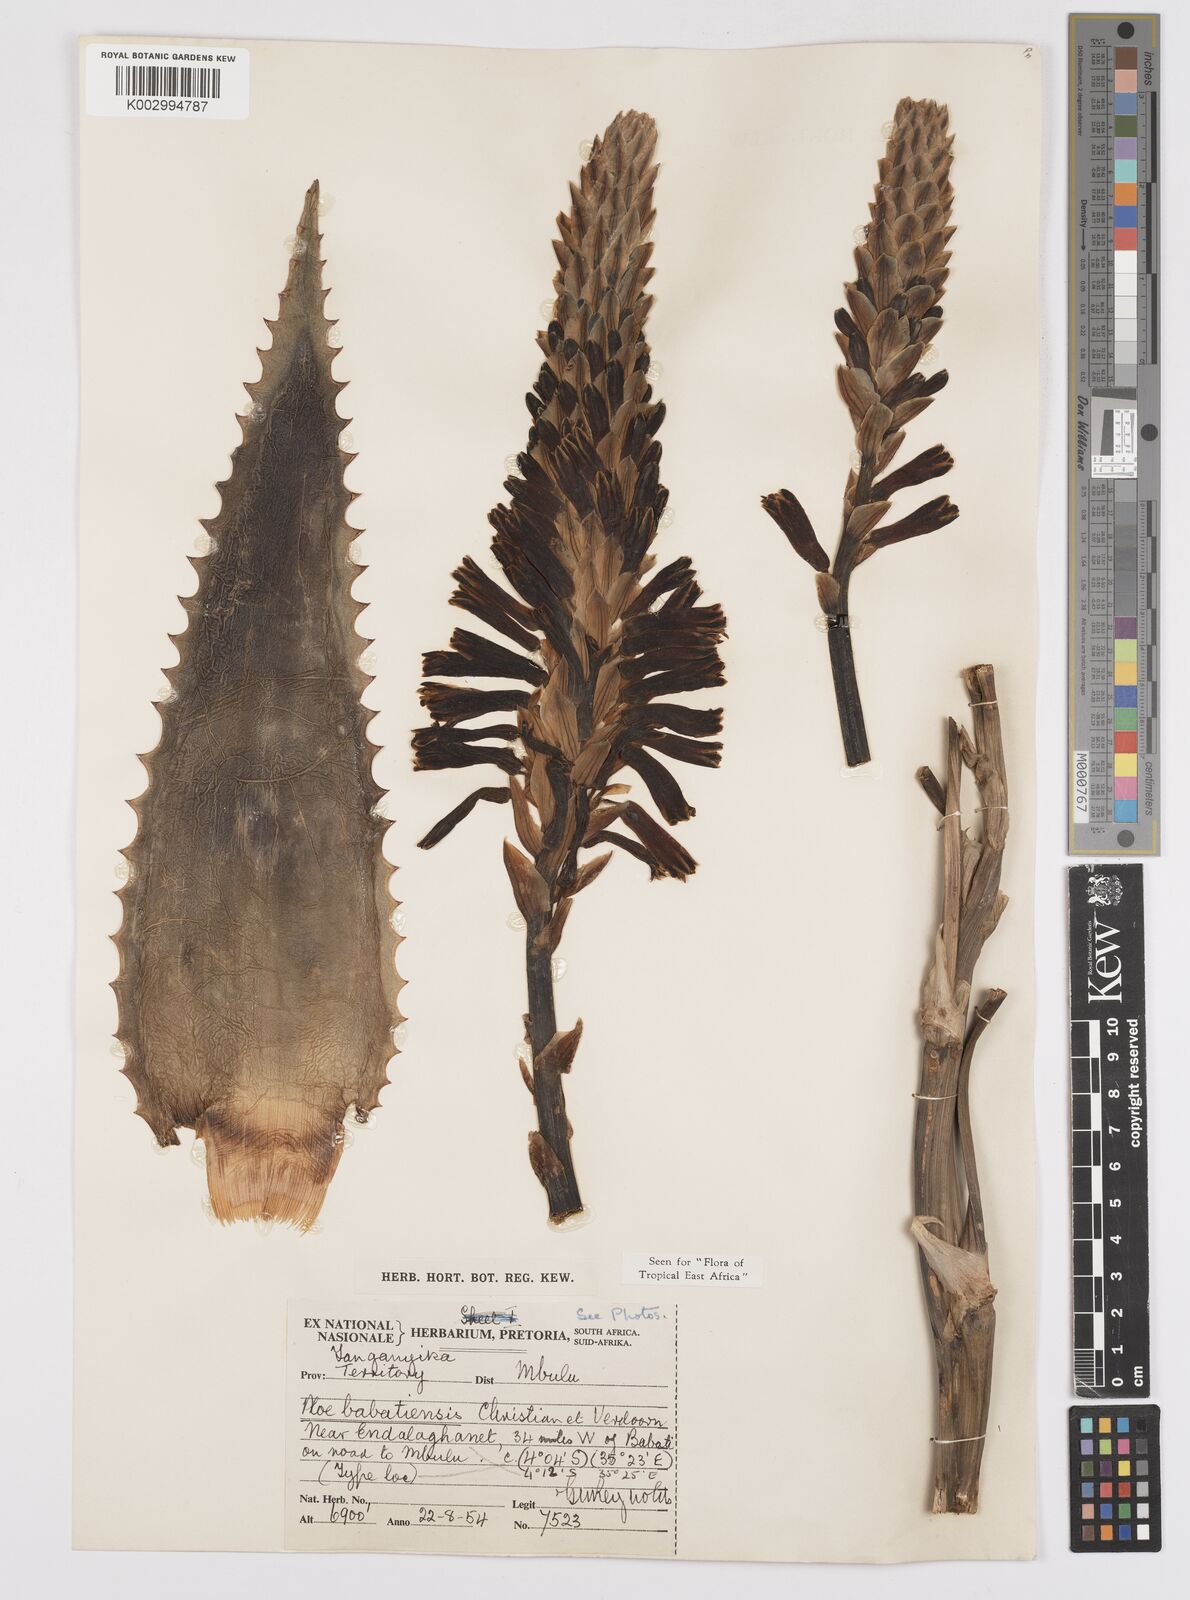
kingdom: Plantae
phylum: Tracheophyta
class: Liliopsida
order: Asparagales
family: Asphodelaceae
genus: Aloe
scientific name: Aloe babatiensis
